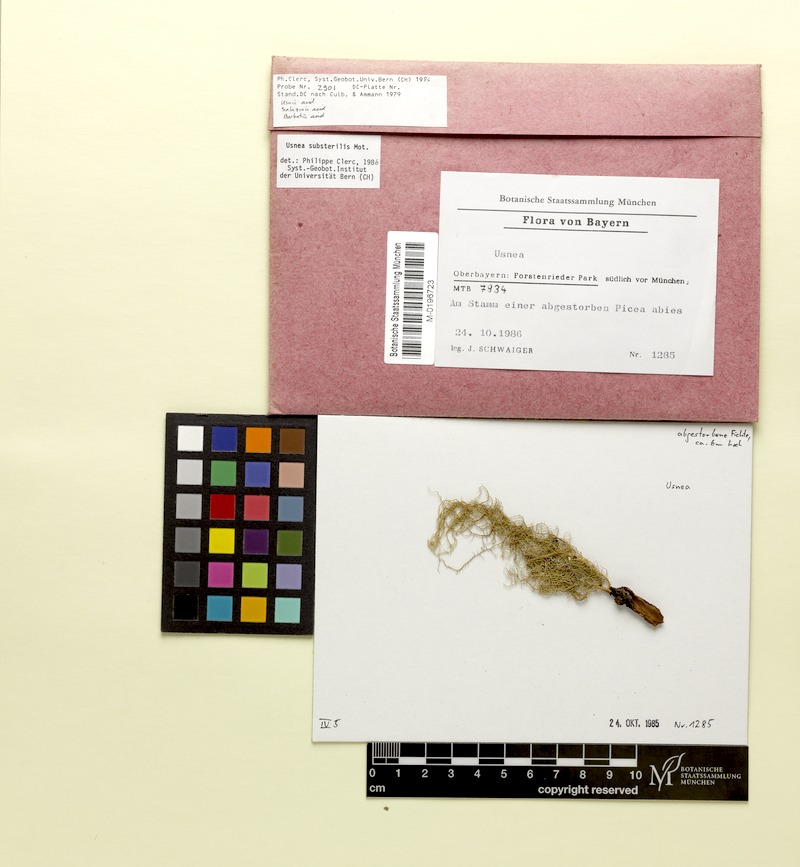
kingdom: Fungi
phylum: Ascomycota
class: Lecanoromycetes
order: Lecanorales
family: Parmeliaceae
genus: Usnea
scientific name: Usnea substerilis
